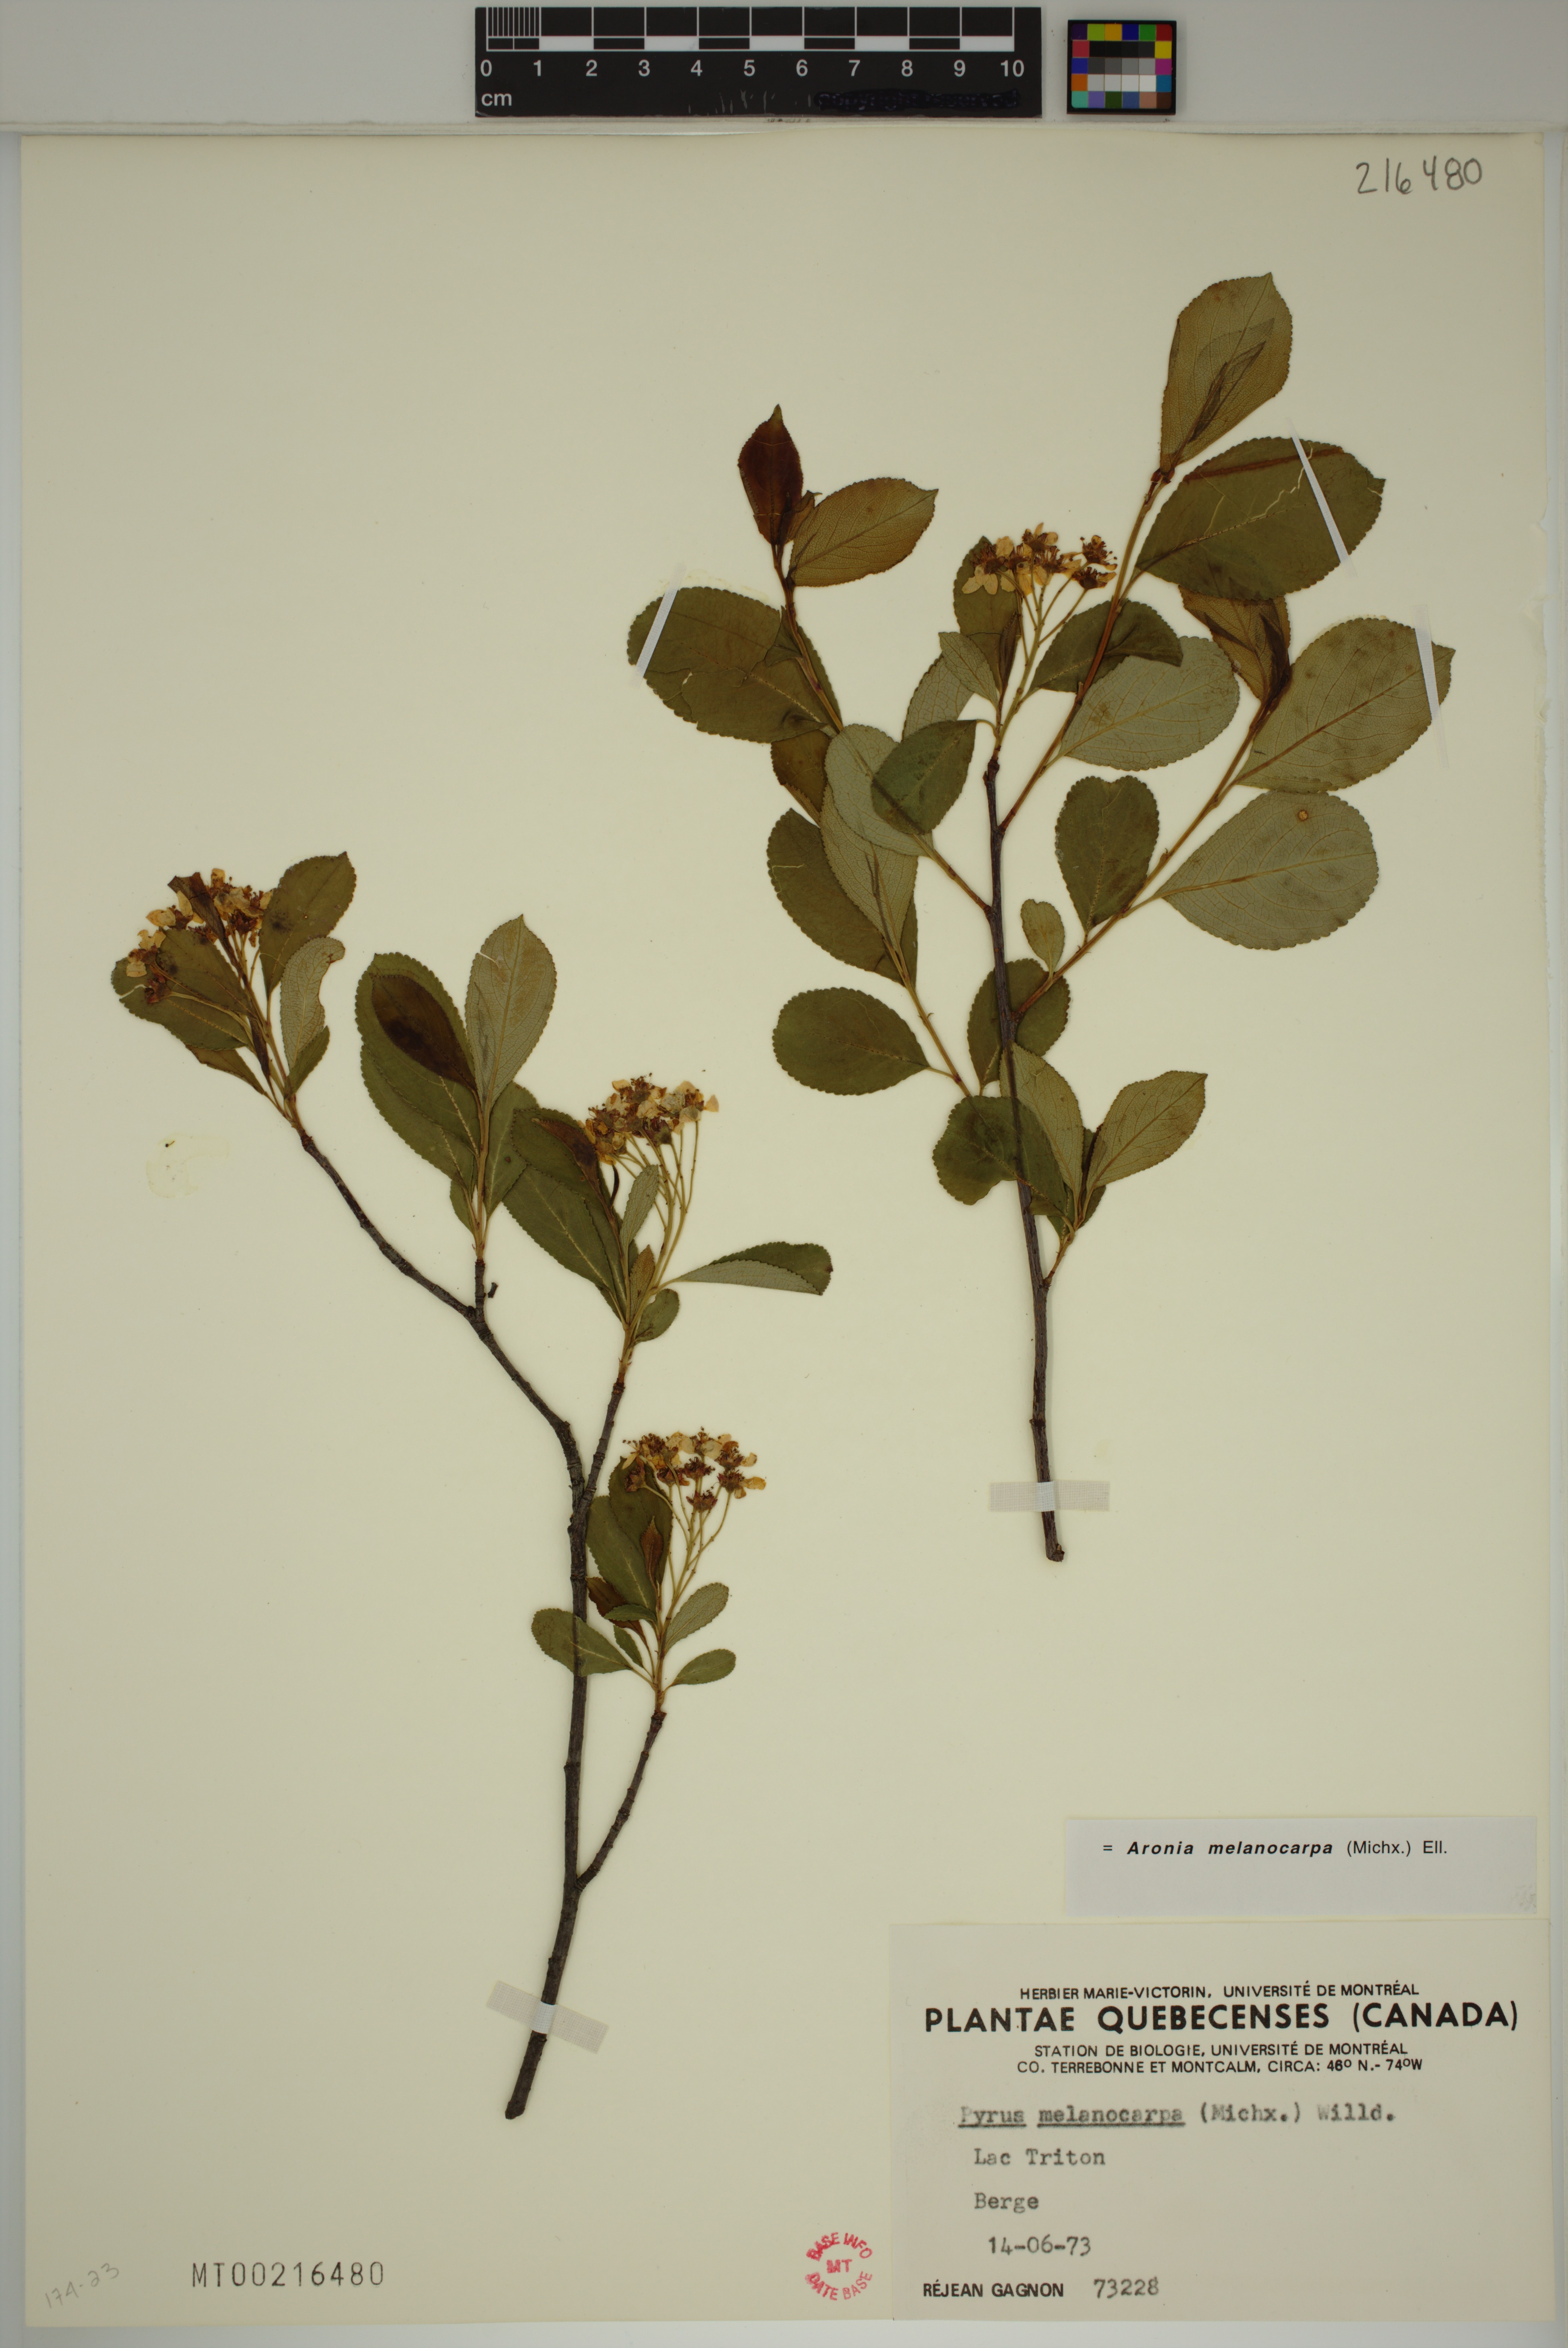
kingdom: Plantae
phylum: Tracheophyta
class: Magnoliopsida
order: Rosales
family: Rosaceae
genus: Aronia
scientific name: Aronia melanocarpa
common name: Black chokeberry
